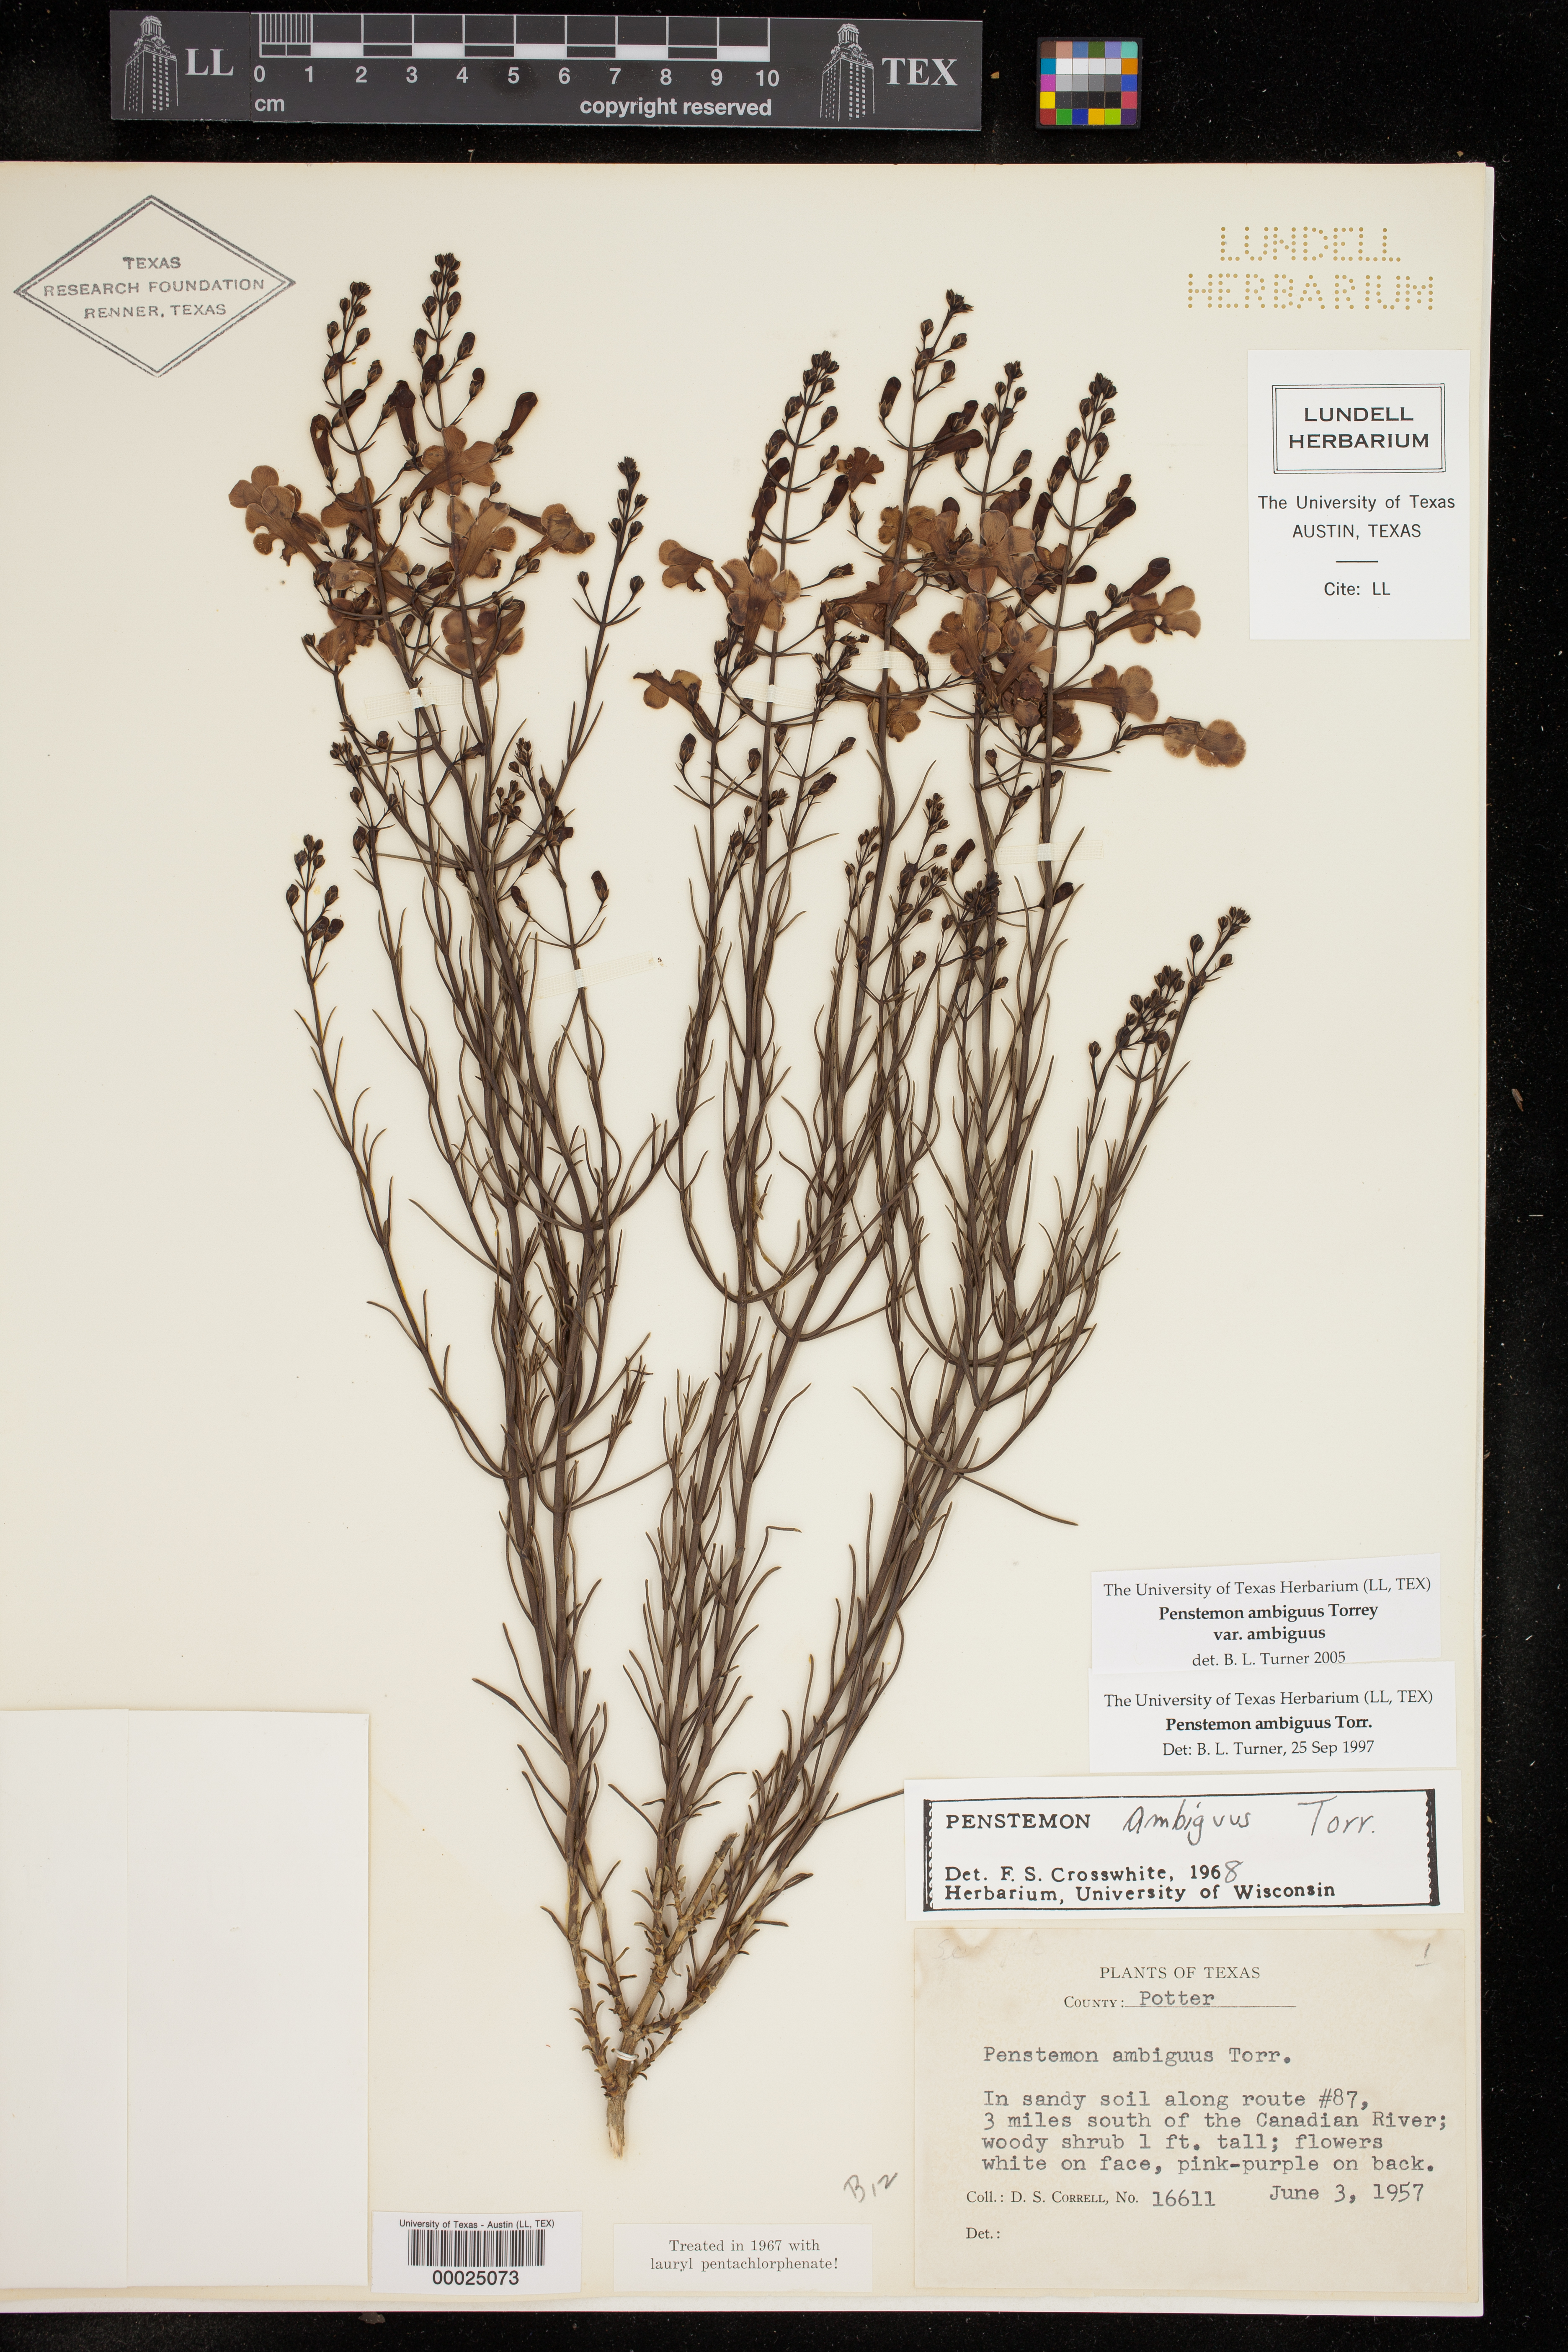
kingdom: Plantae
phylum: Tracheophyta
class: Magnoliopsida
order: Lamiales
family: Plantaginaceae
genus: Penstemon
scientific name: Penstemon ambiguus
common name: Bush penstemon
